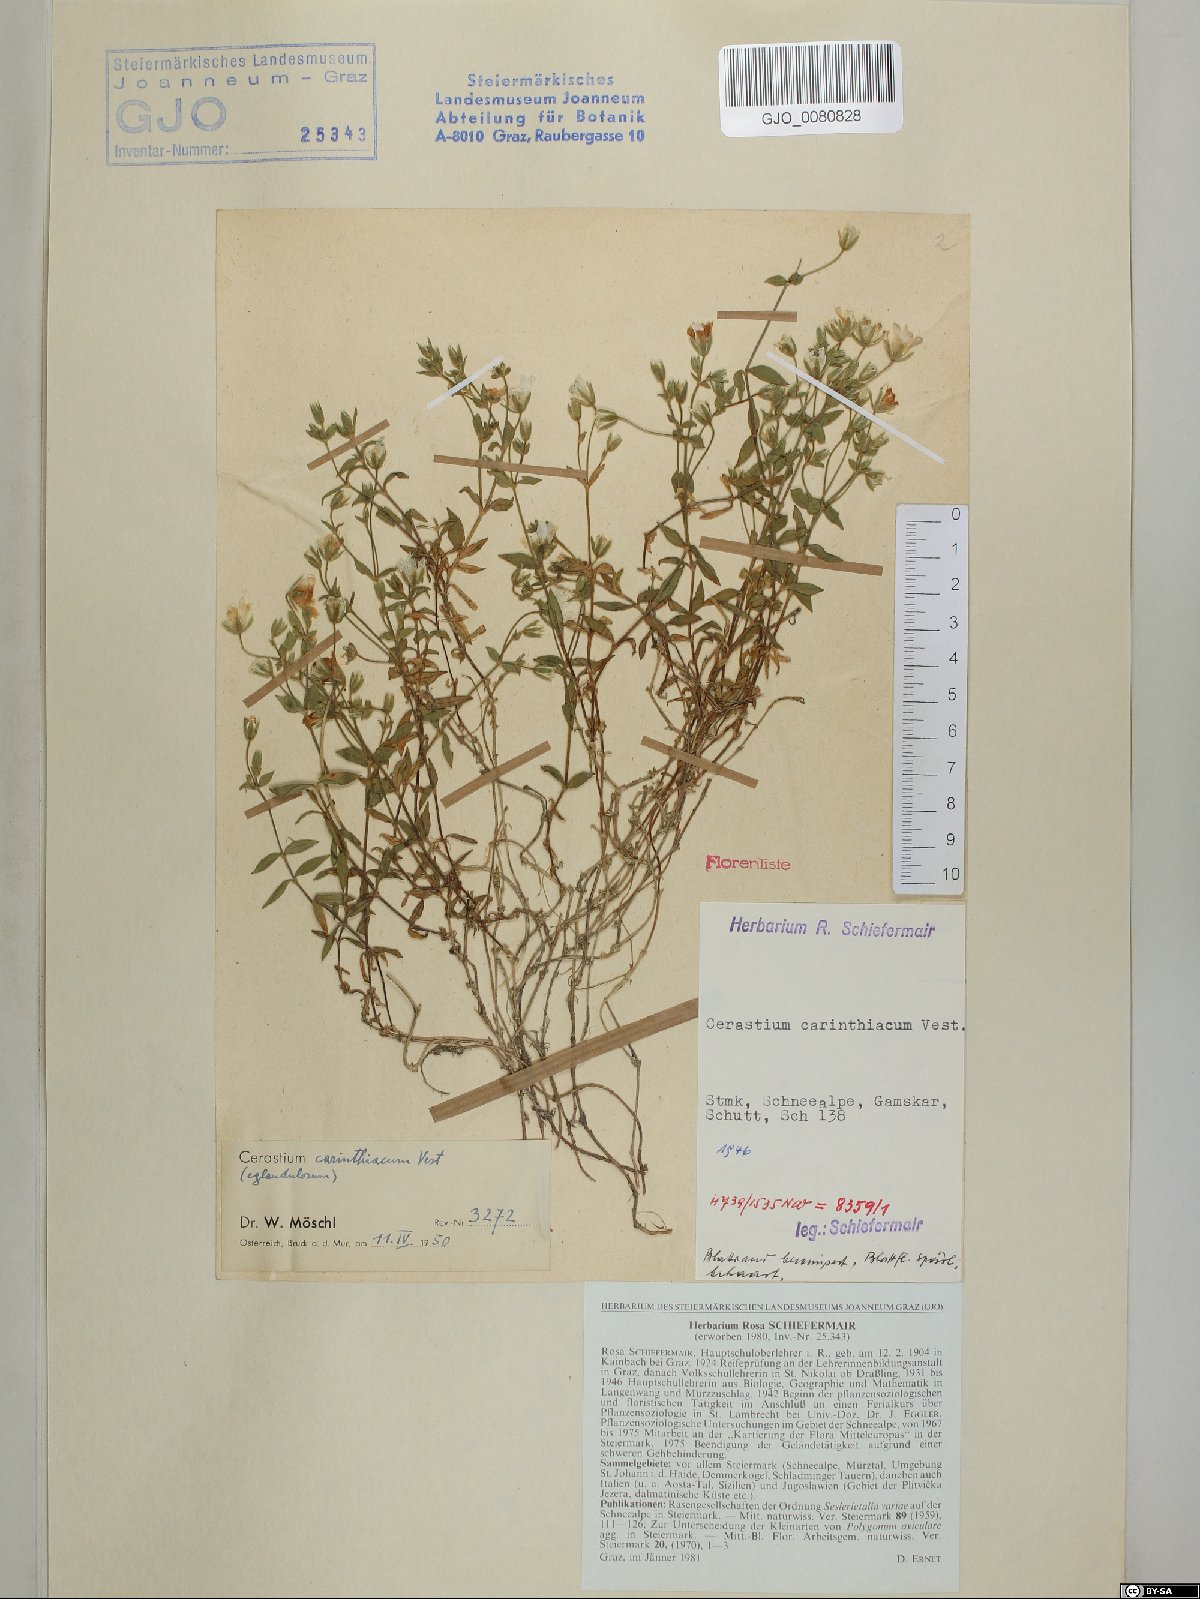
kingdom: Plantae
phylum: Tracheophyta
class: Magnoliopsida
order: Caryophyllales
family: Caryophyllaceae
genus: Cerastium
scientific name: Cerastium carinthiacum
